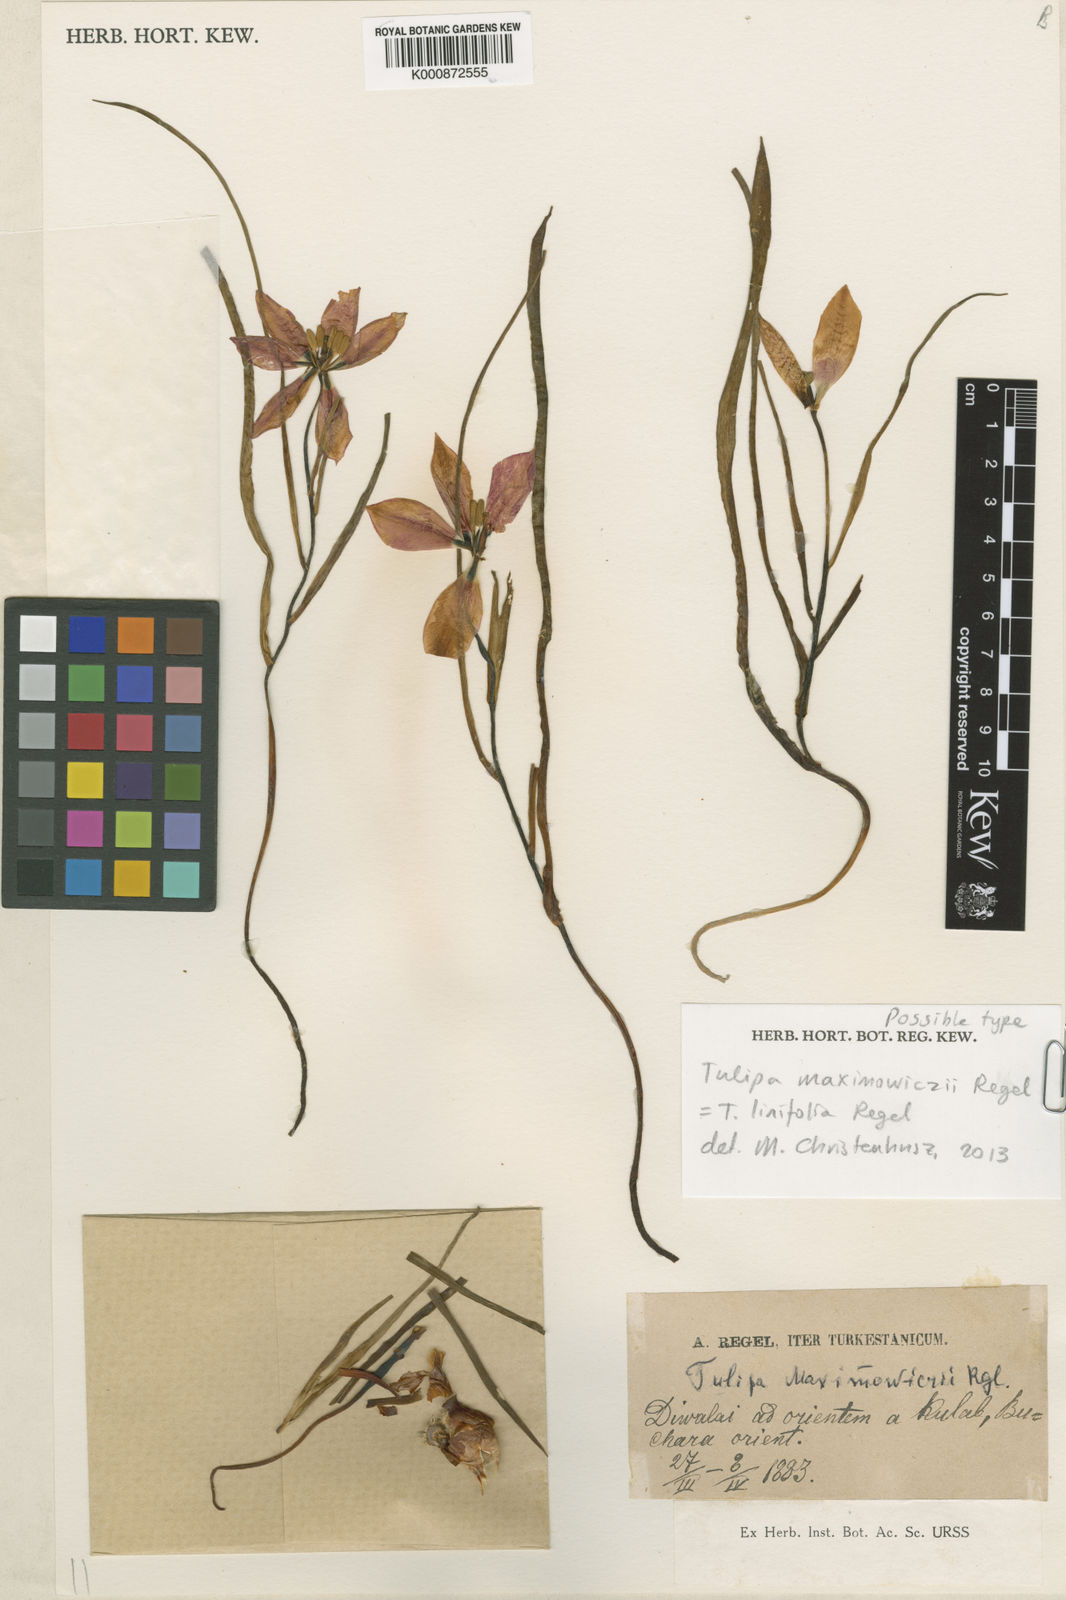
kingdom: Plantae
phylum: Tracheophyta
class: Liliopsida
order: Liliales
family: Liliaceae
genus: Tulipa
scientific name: Tulipa linifolia
